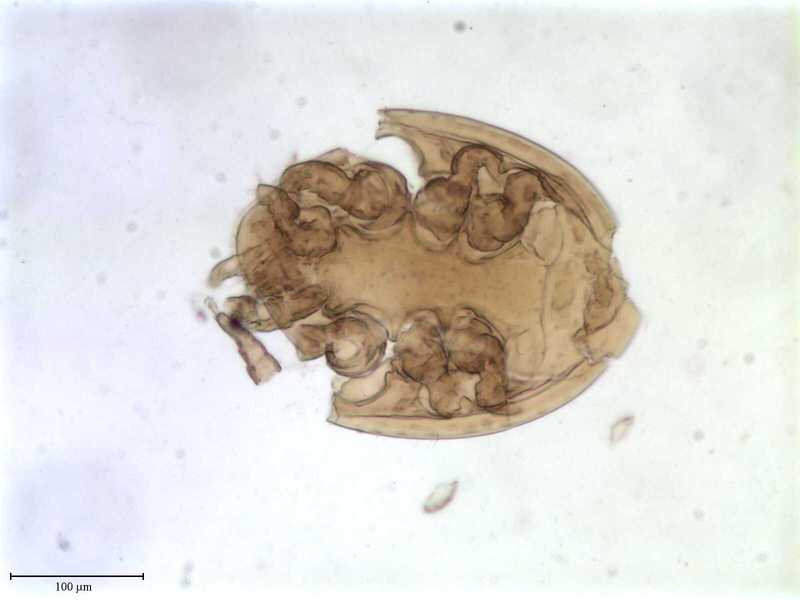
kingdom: Animalia
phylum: Arthropoda
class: Arachnida
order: Mesostigmata
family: Uropodidae
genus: Cilliba
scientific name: Cilliba
